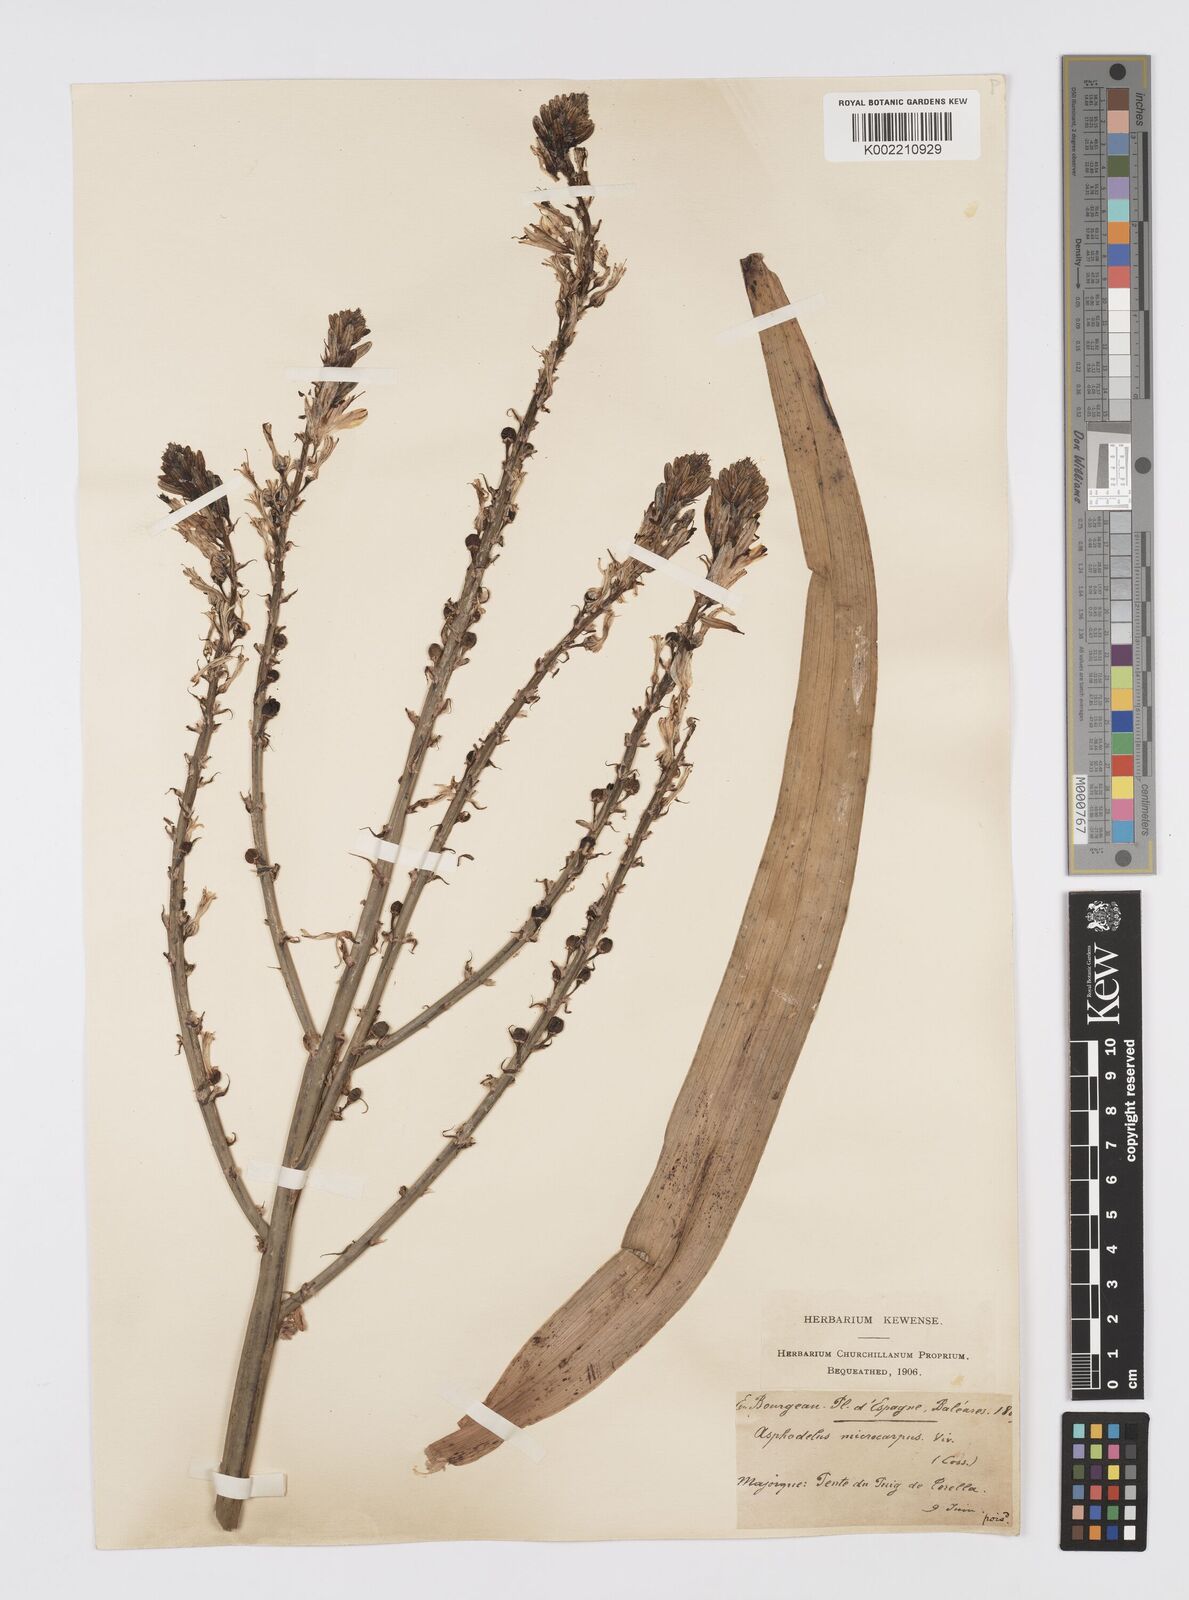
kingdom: Plantae
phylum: Tracheophyta
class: Liliopsida
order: Asparagales
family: Asphodelaceae
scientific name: Asphodelaceae
